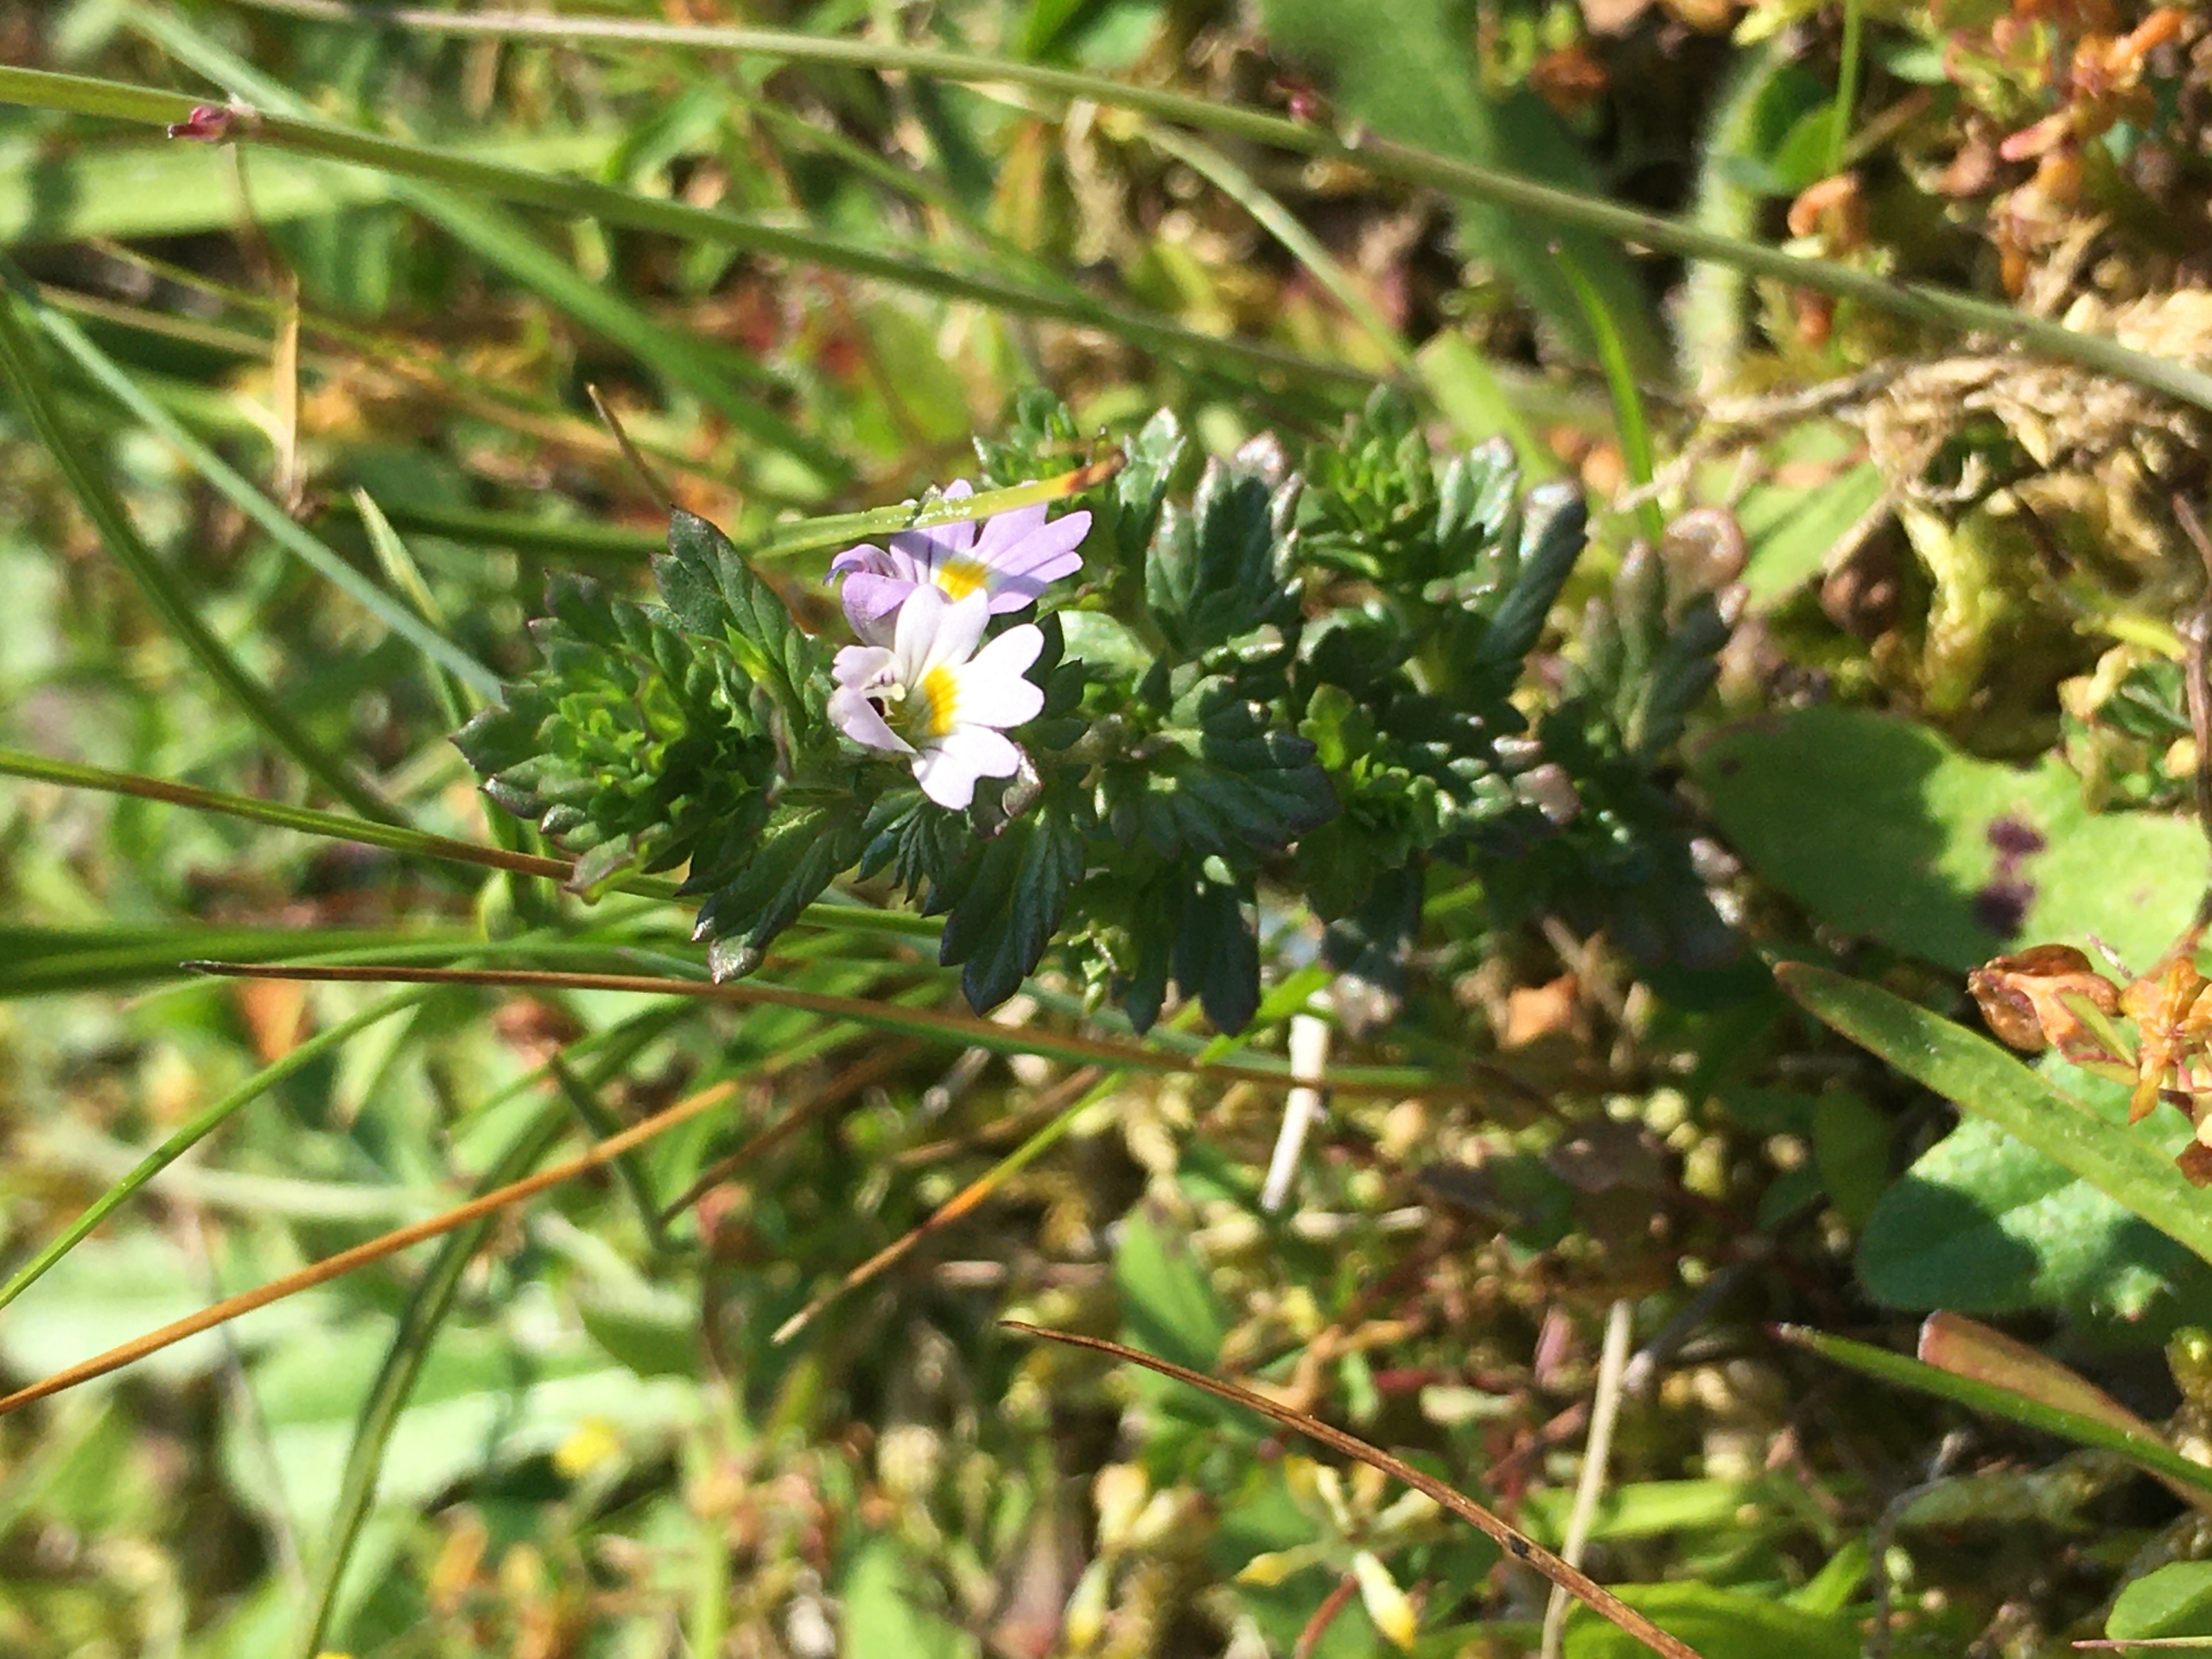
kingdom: Plantae
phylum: Tracheophyta
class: Magnoliopsida
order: Lamiales
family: Orobanchaceae
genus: Euphrasia
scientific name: Euphrasia nemorosa
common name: Kort øjentrøst
